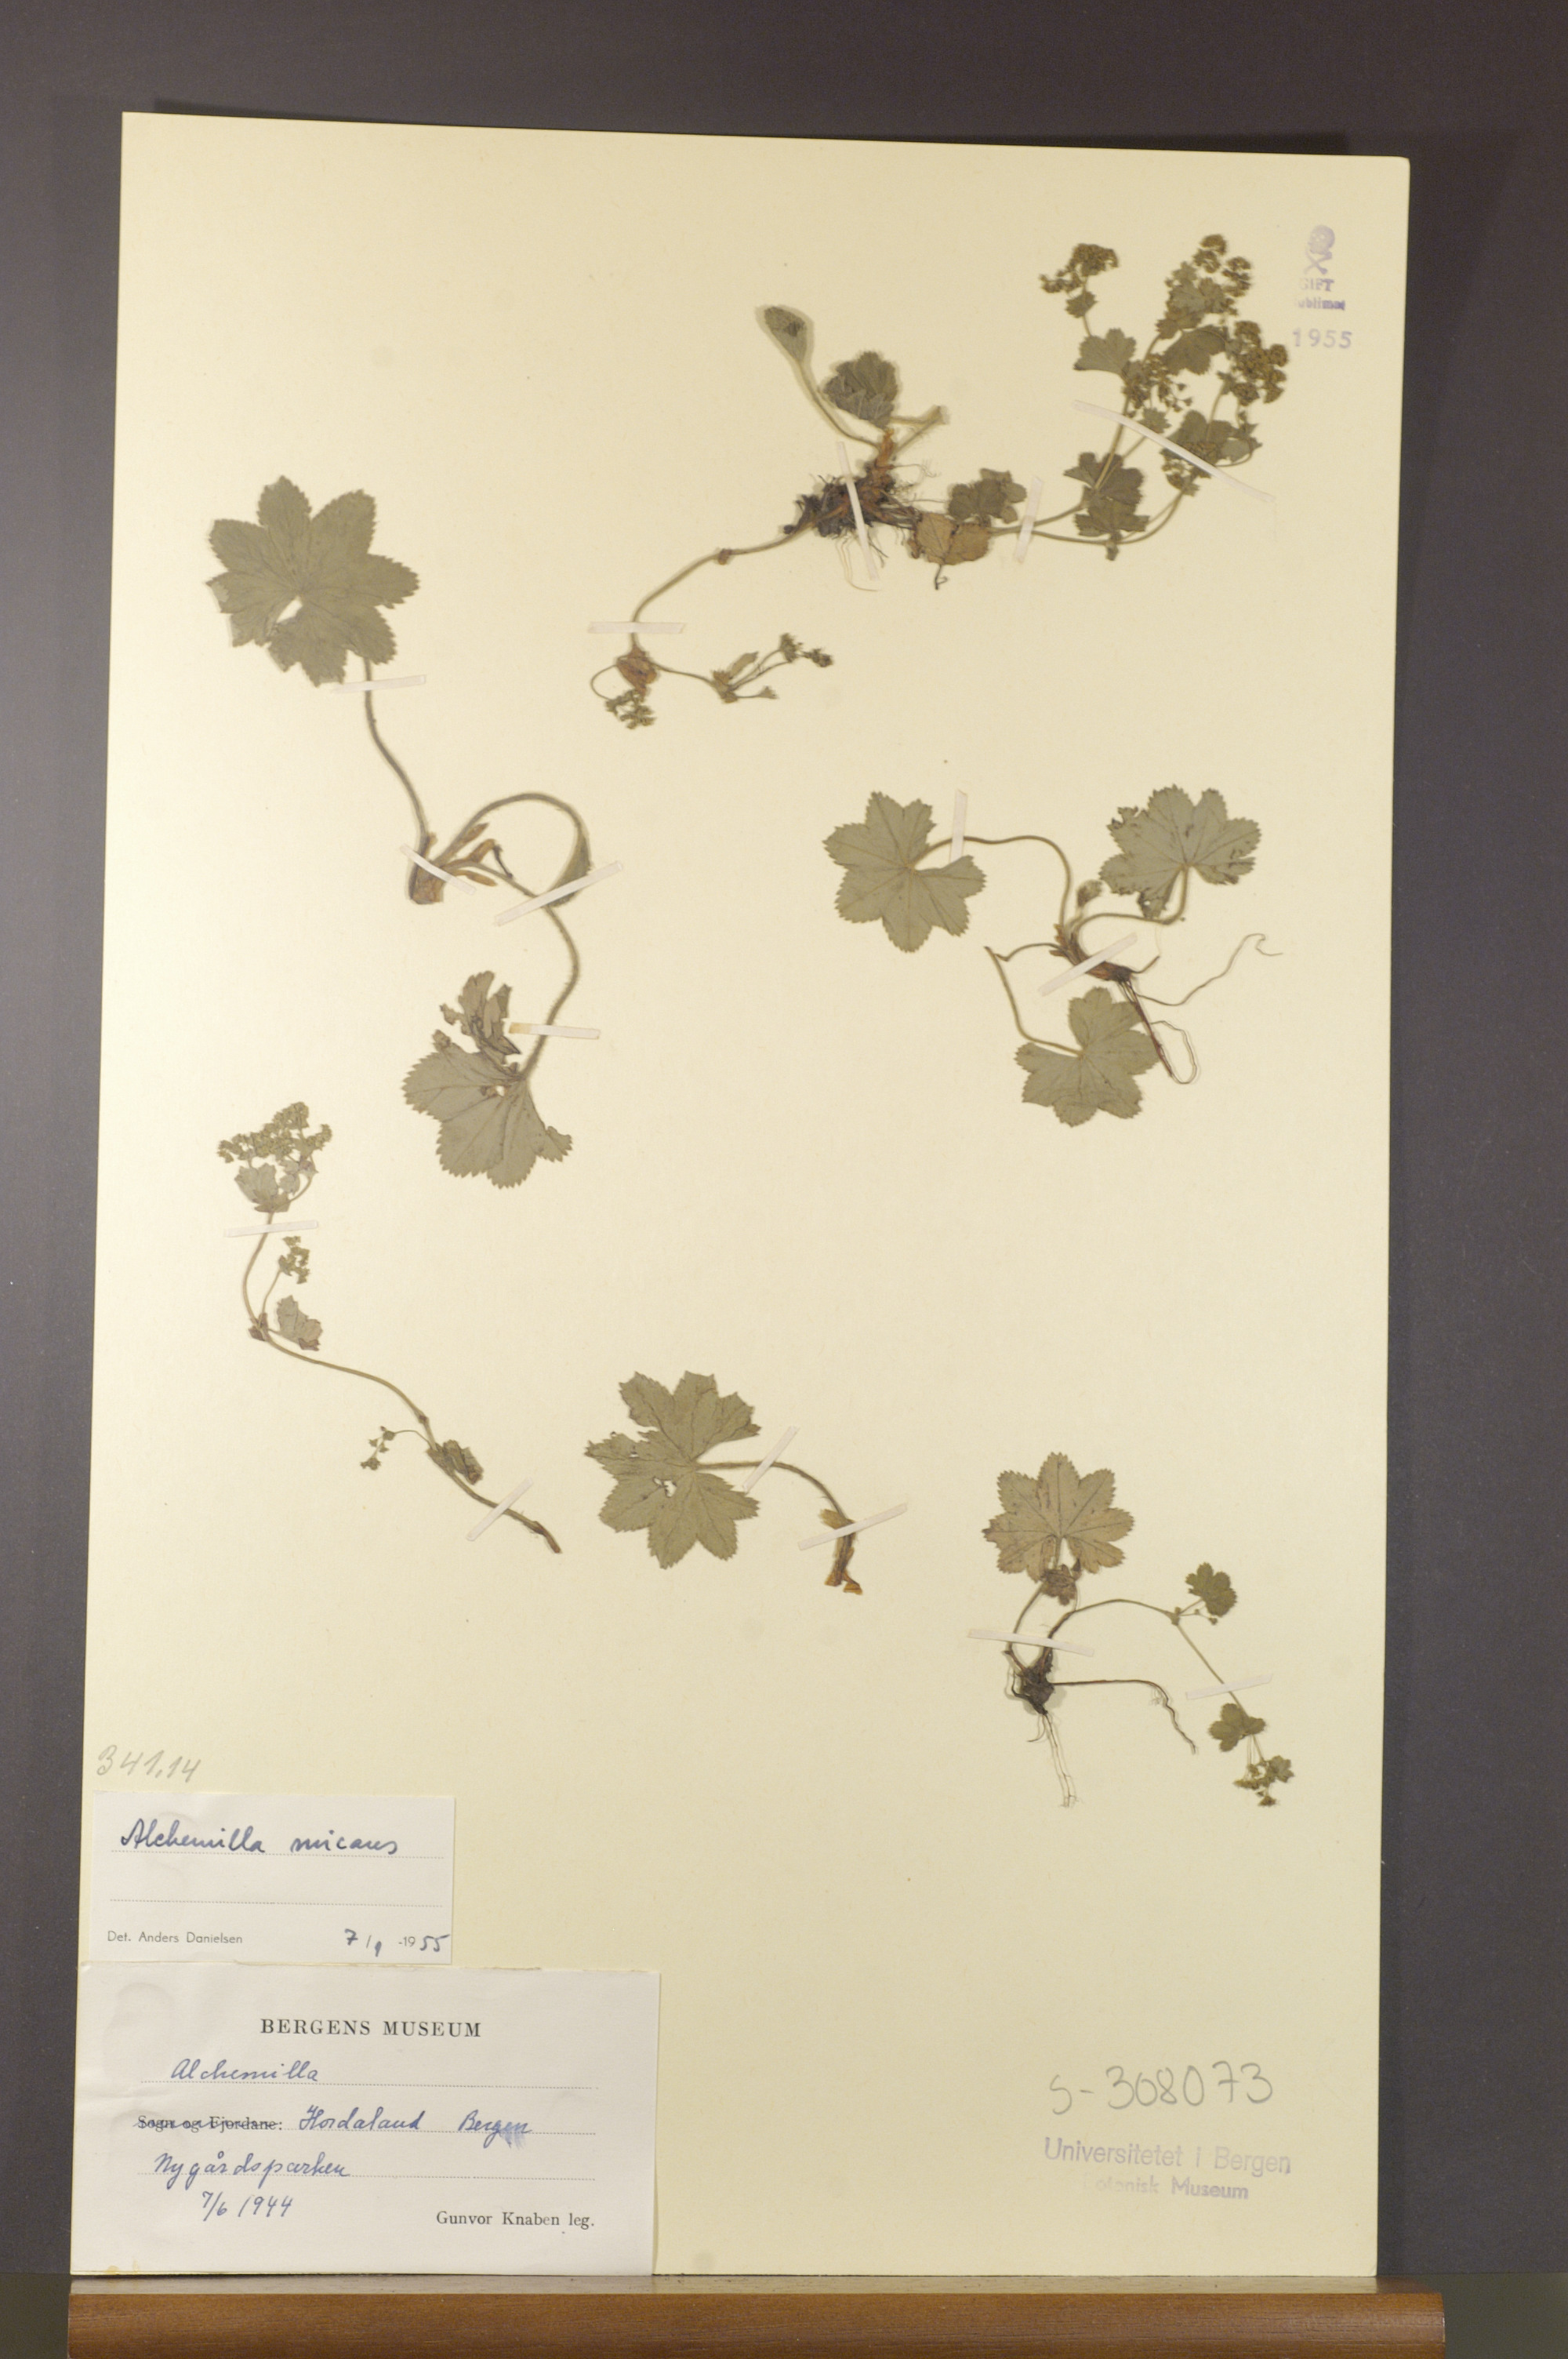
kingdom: Plantae
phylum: Tracheophyta
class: Magnoliopsida
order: Rosales
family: Rosaceae
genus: Alchemilla
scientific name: Alchemilla micans
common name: Gleaming lady's mantle
